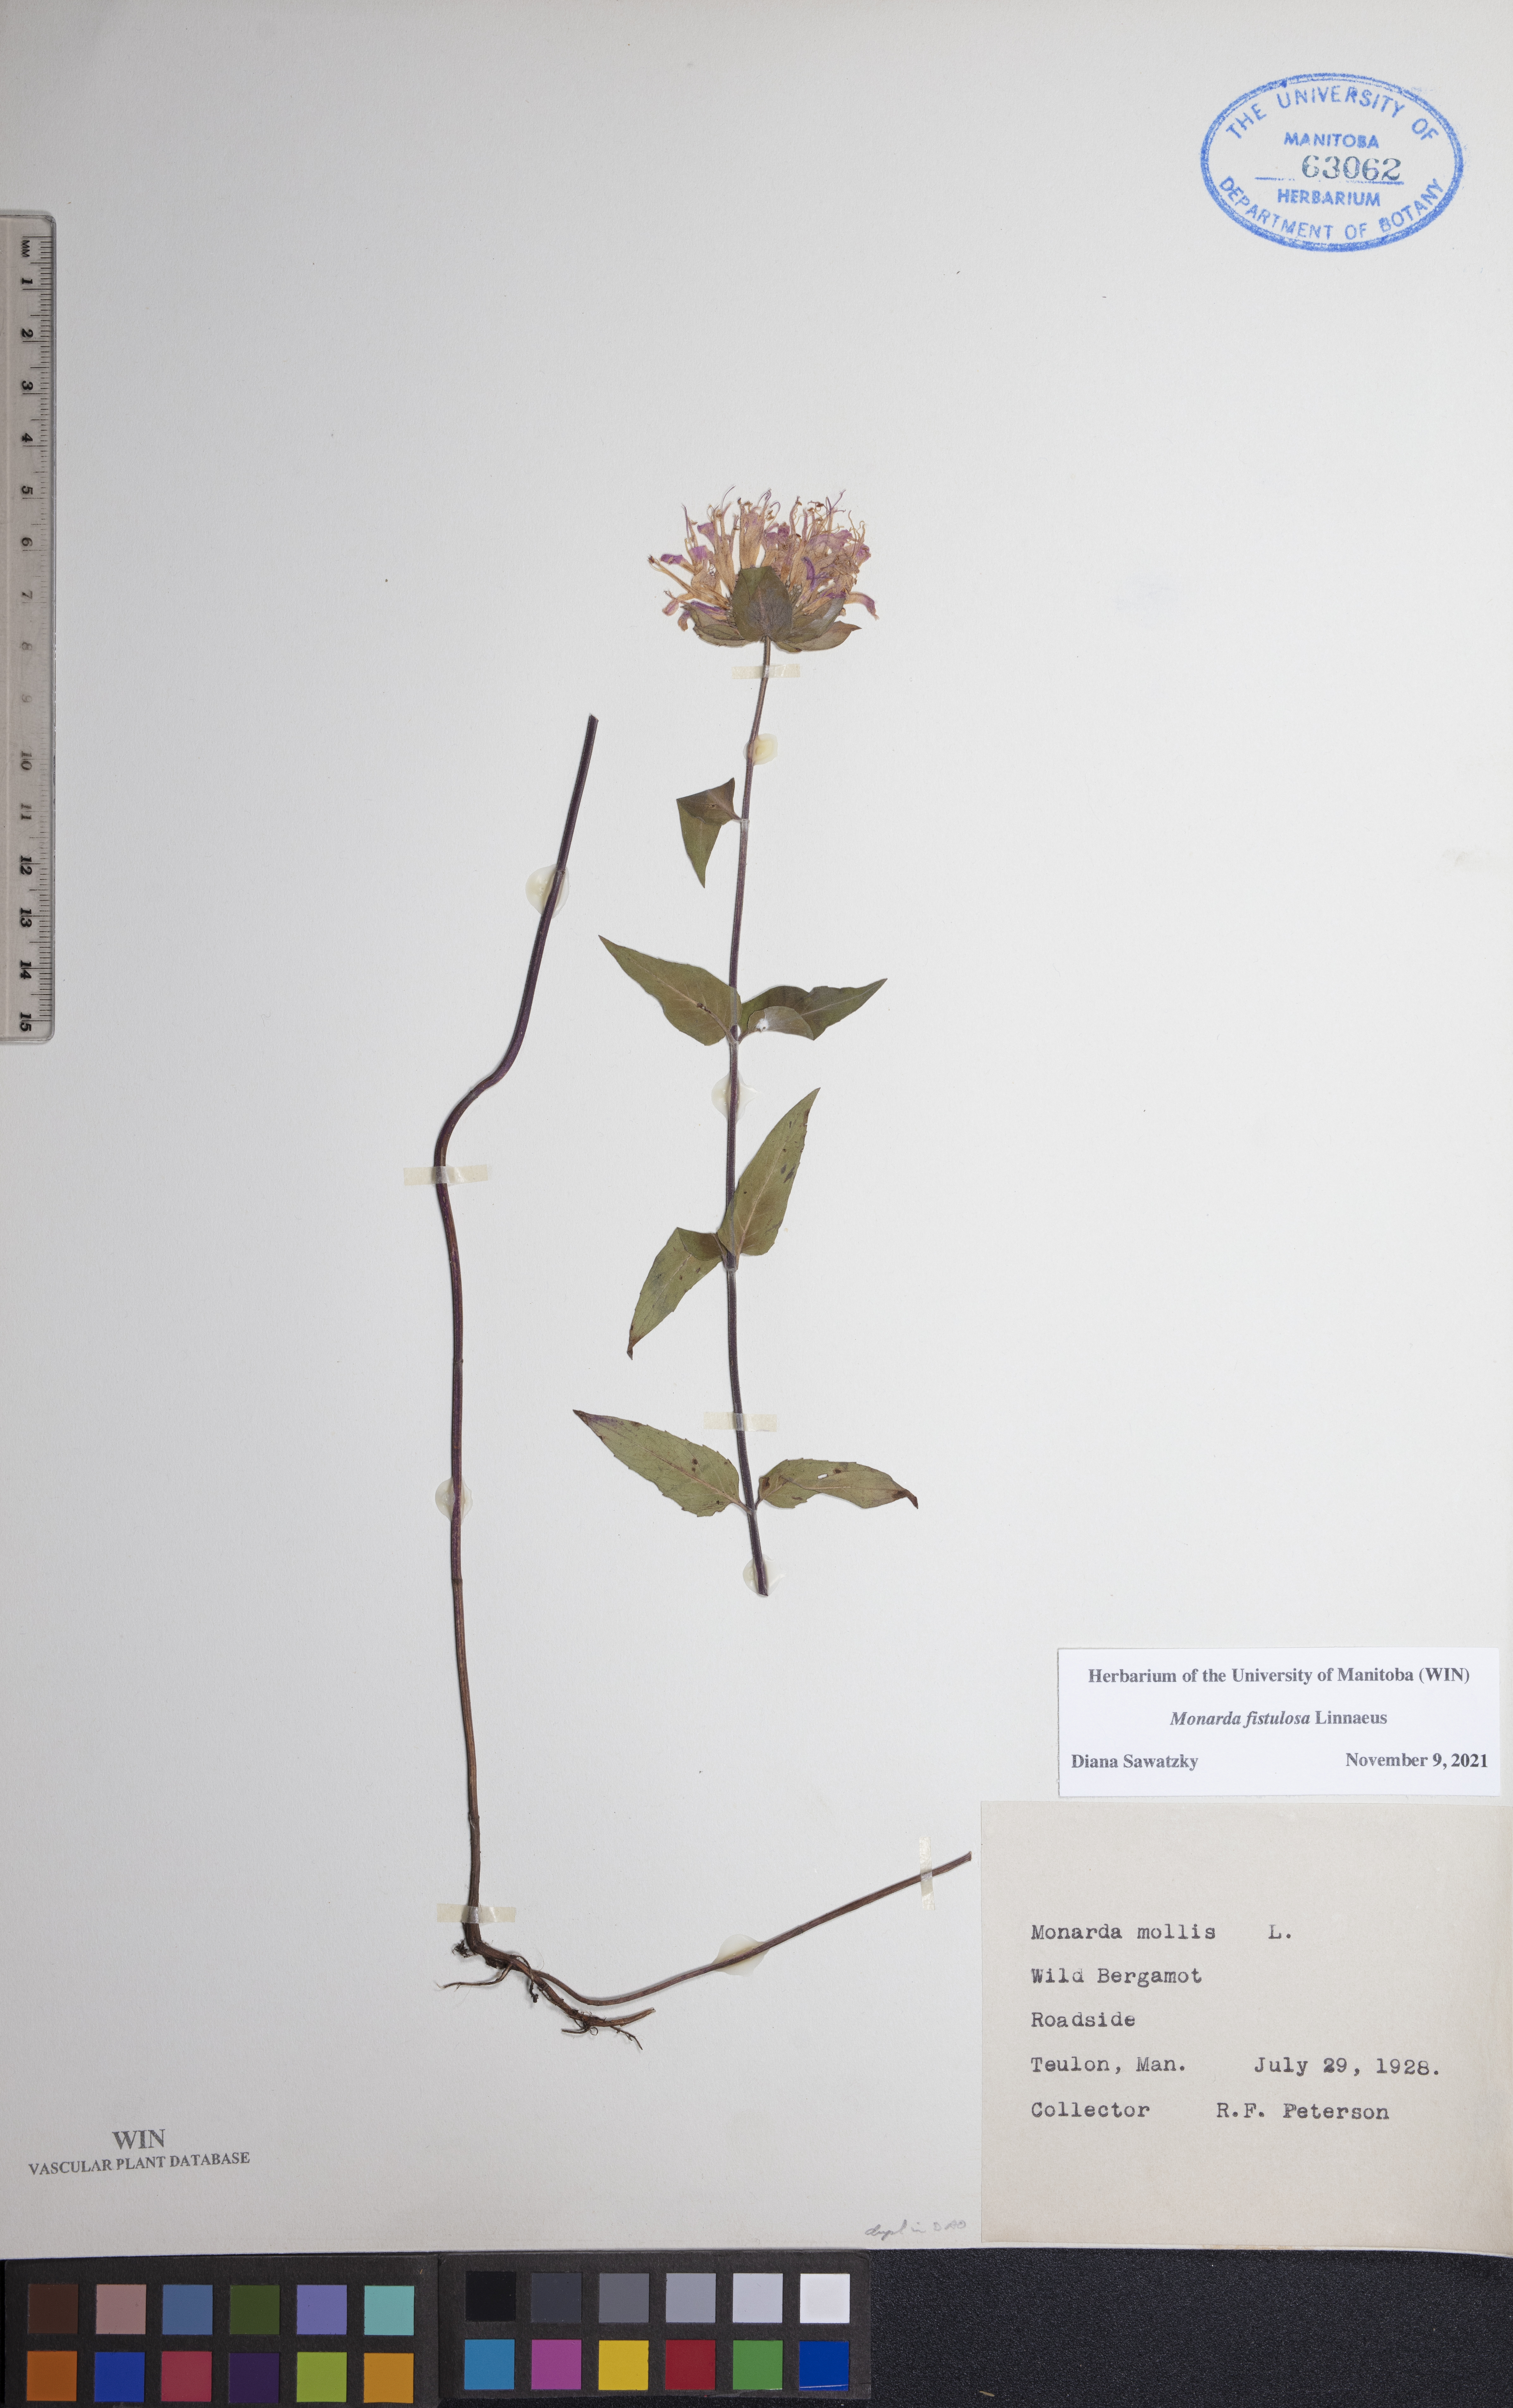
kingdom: Plantae
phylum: Tracheophyta
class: Magnoliopsida
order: Lamiales
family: Lamiaceae
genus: Monarda
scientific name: Monarda fistulosa
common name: Purple beebalm
